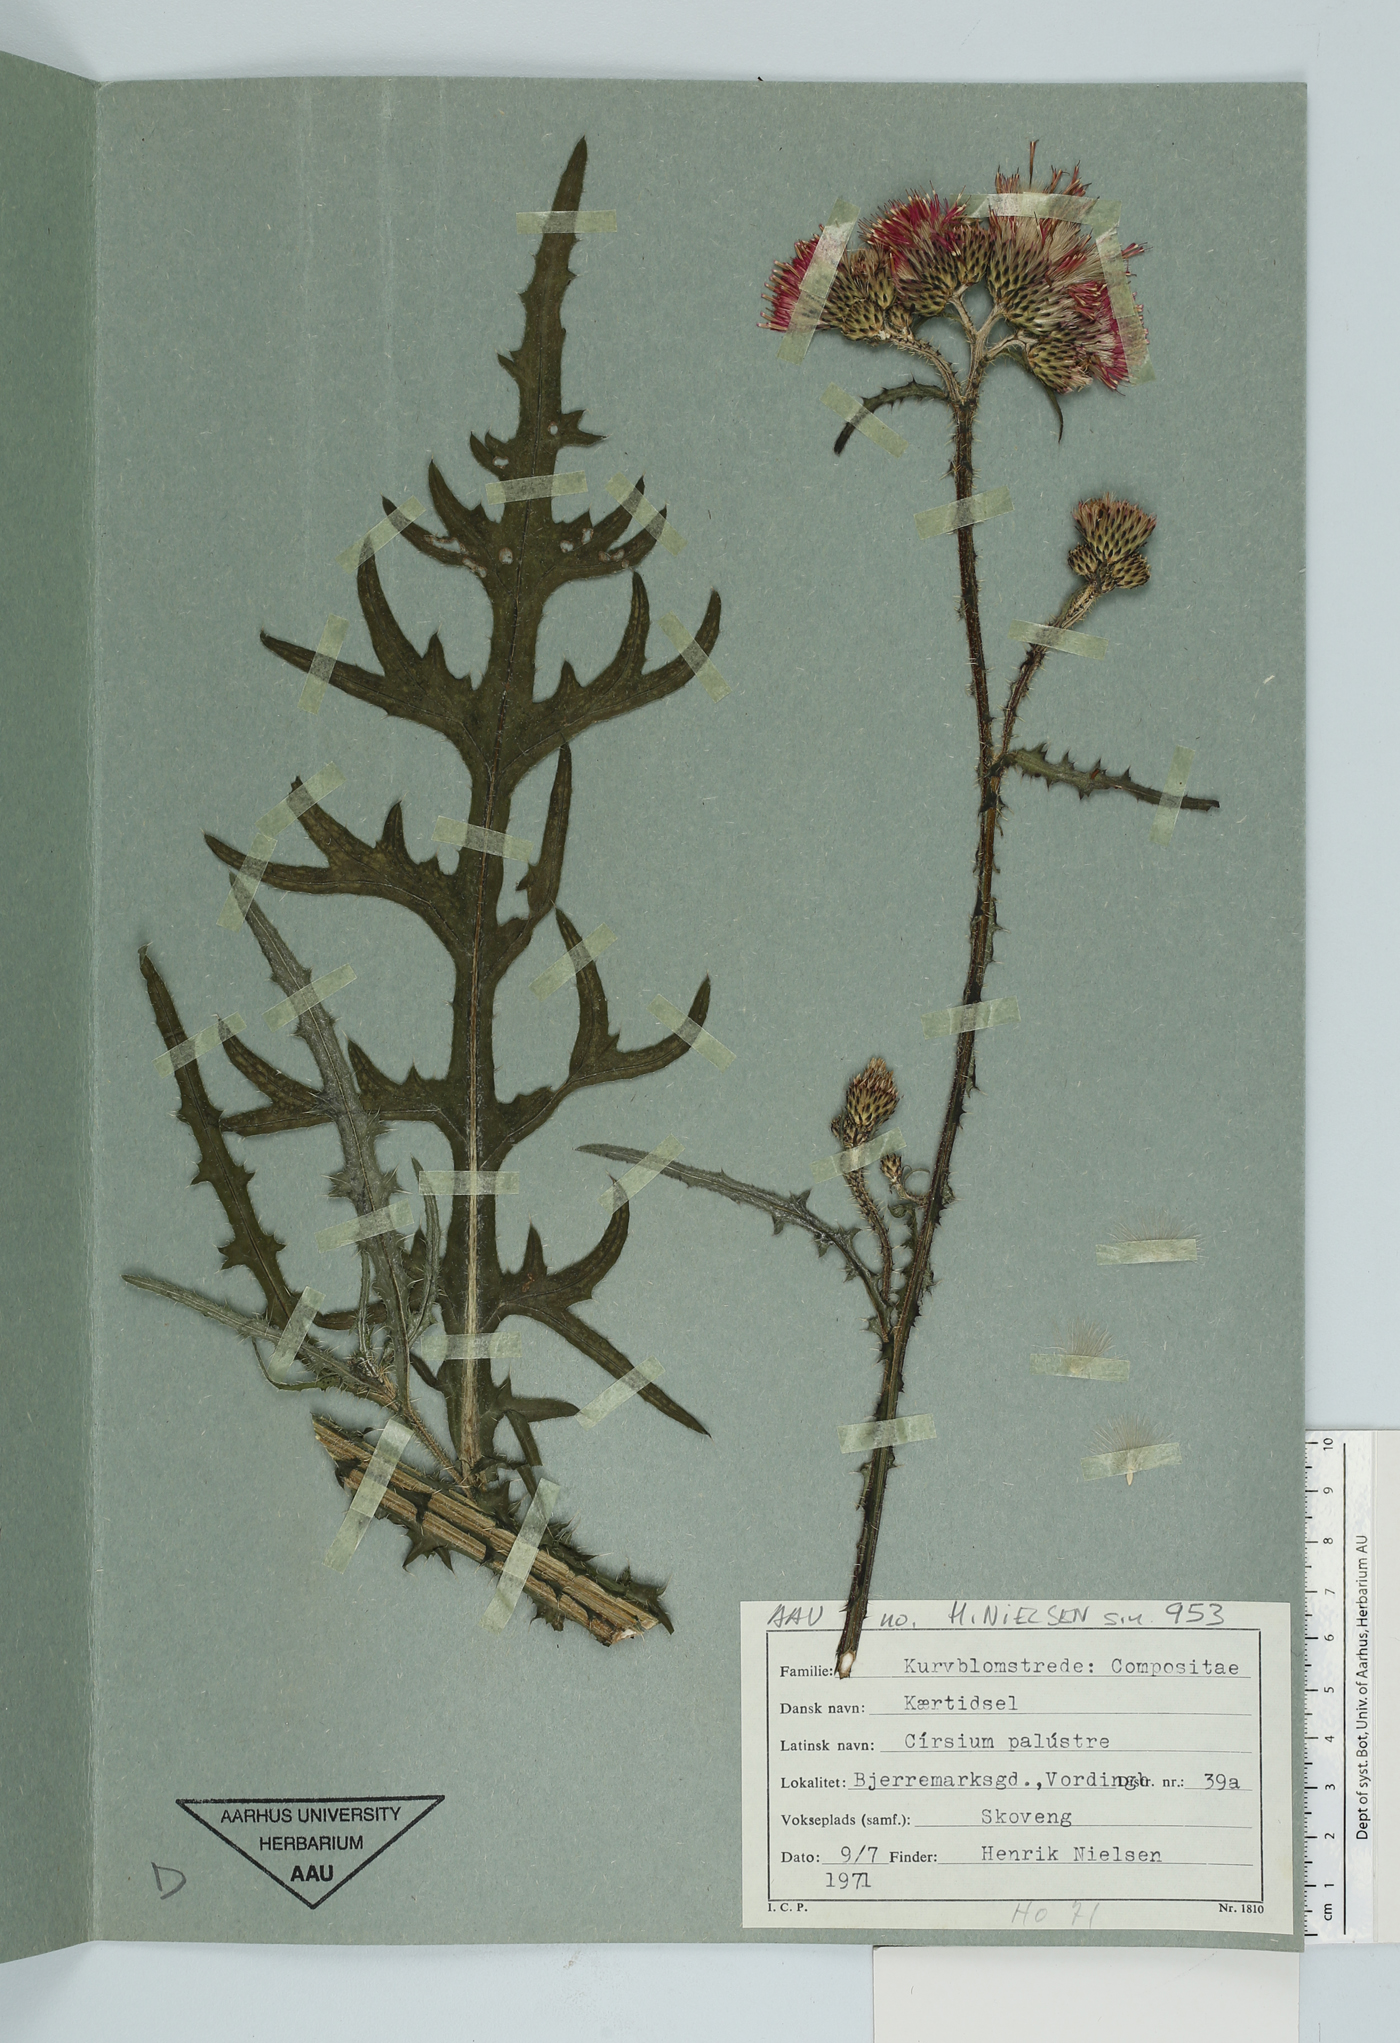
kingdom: Plantae
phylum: Tracheophyta
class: Magnoliopsida
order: Asterales
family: Asteraceae
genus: Cirsium
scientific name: Cirsium palustre
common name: Marsh thistle
